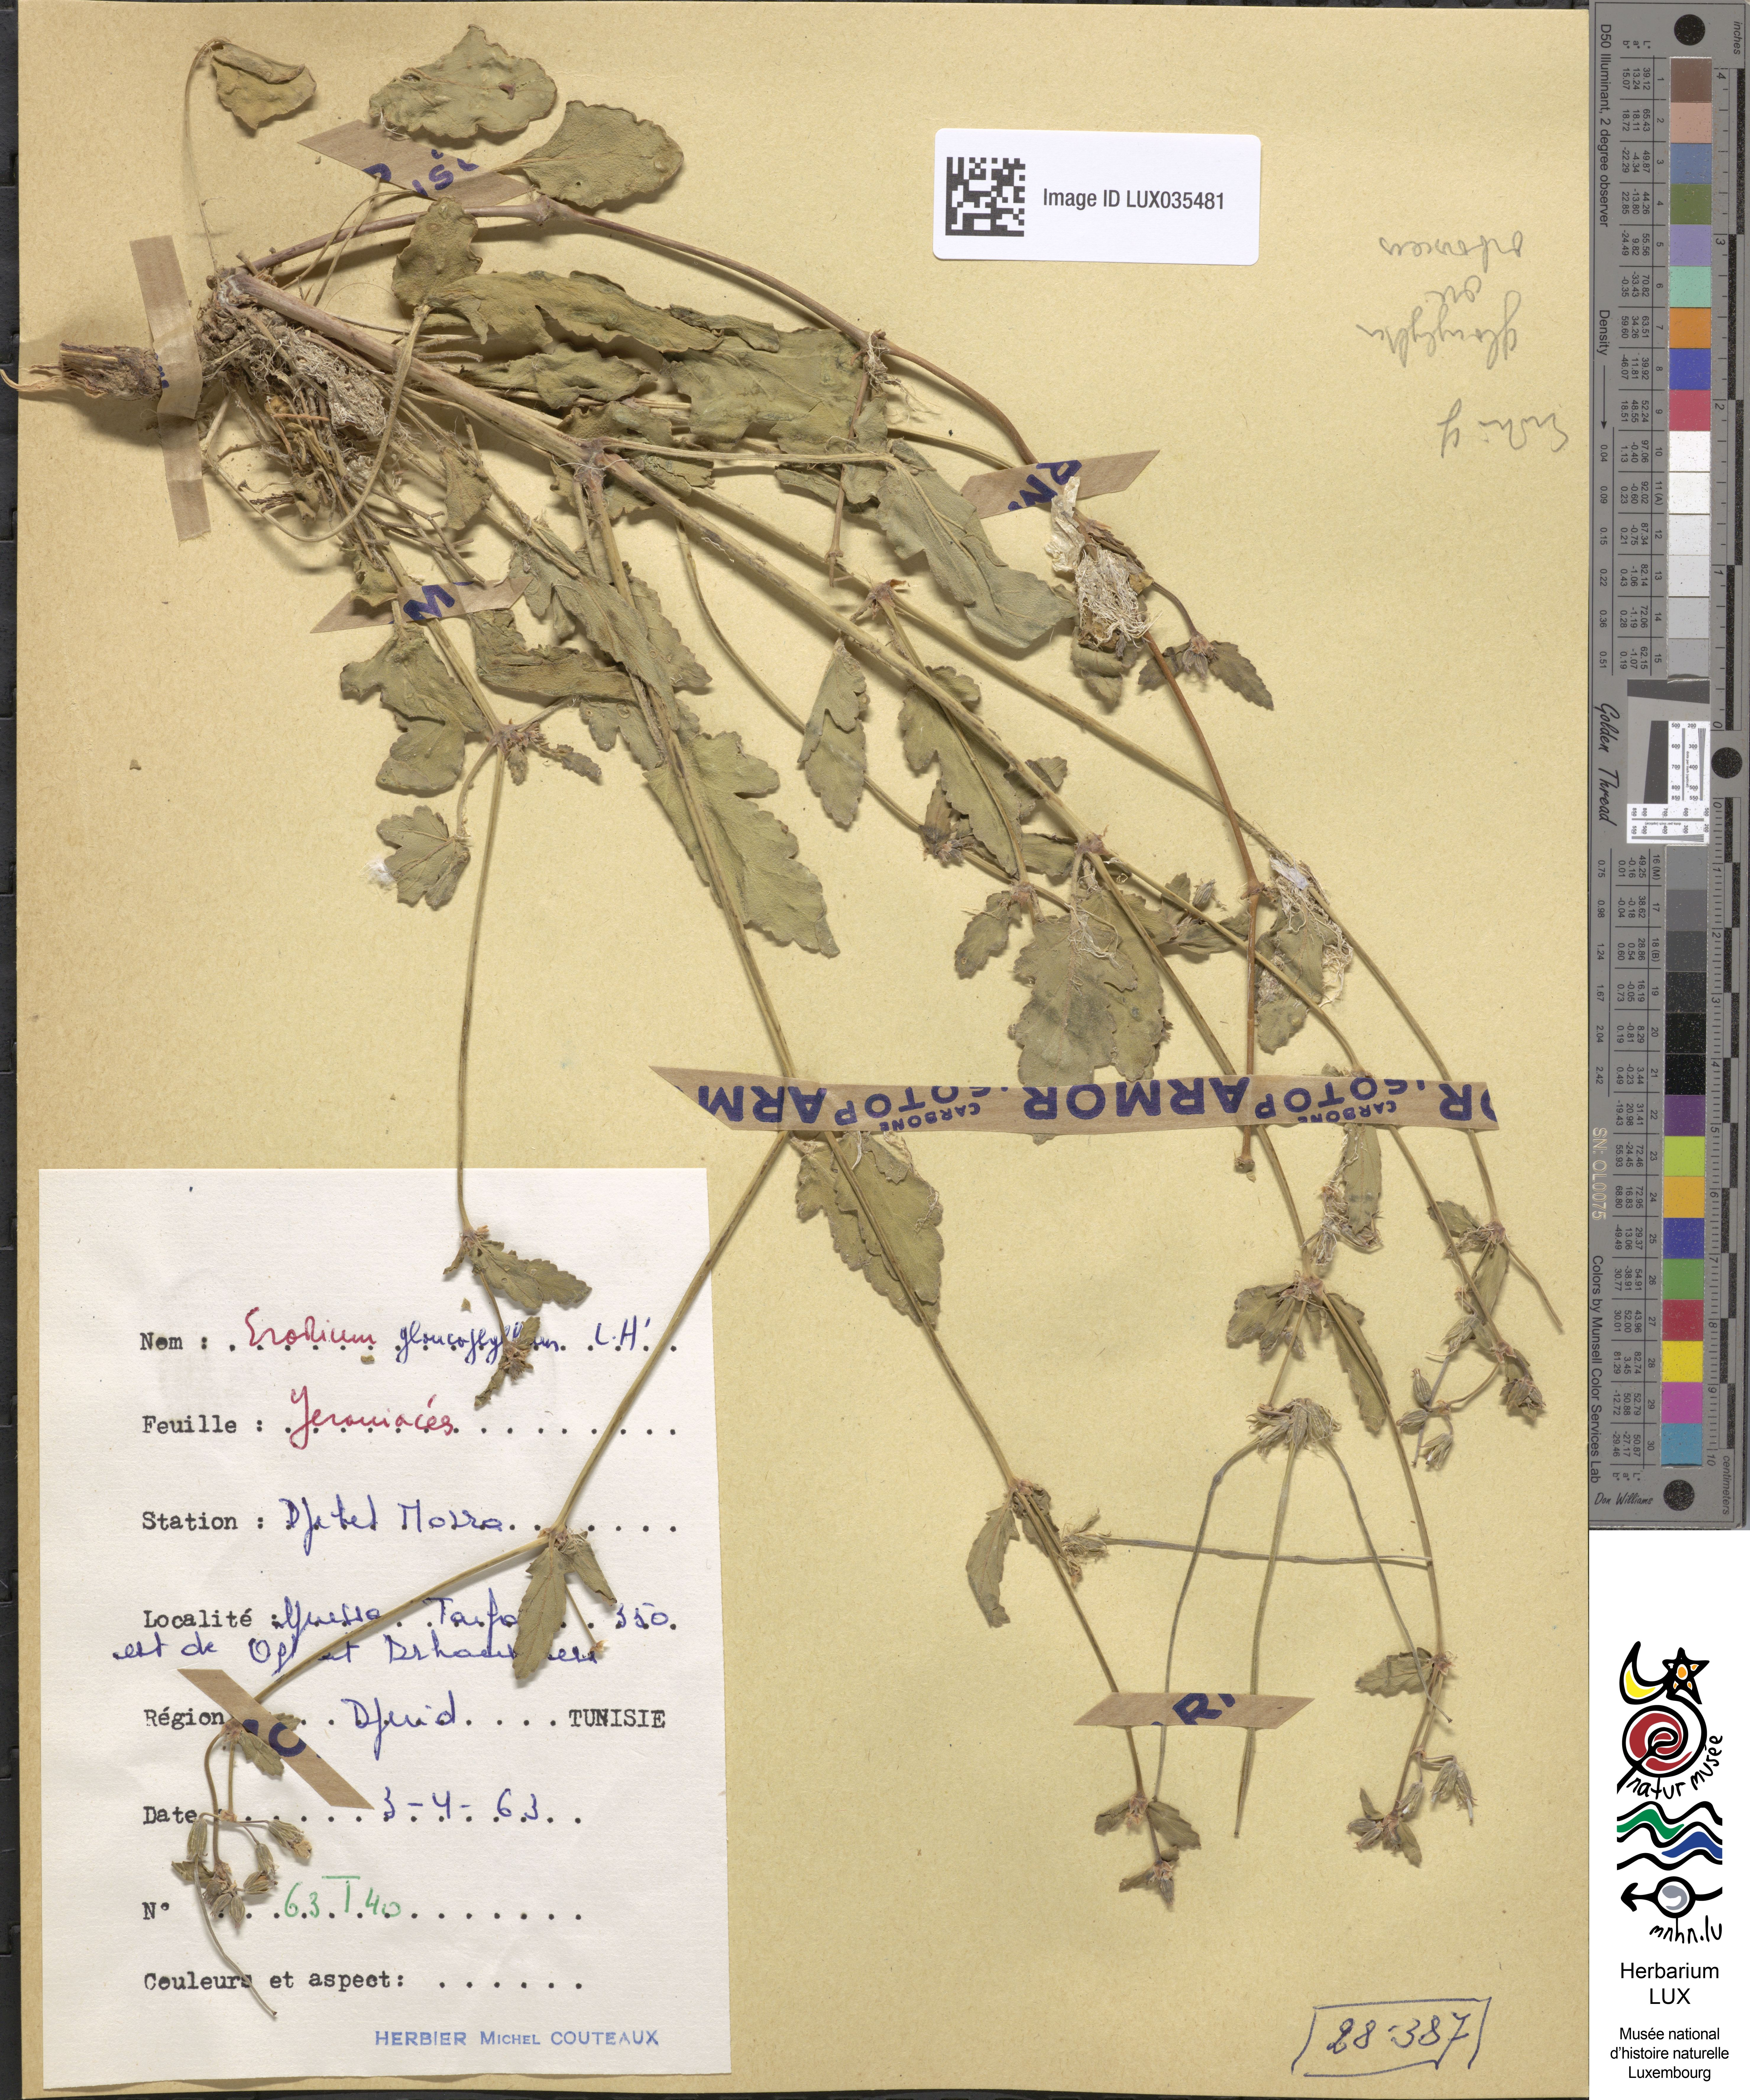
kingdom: Plantae
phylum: Tracheophyta
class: Magnoliopsida
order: Geraniales
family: Geraniaceae
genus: Erodium
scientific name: Erodium glaucophyllum
